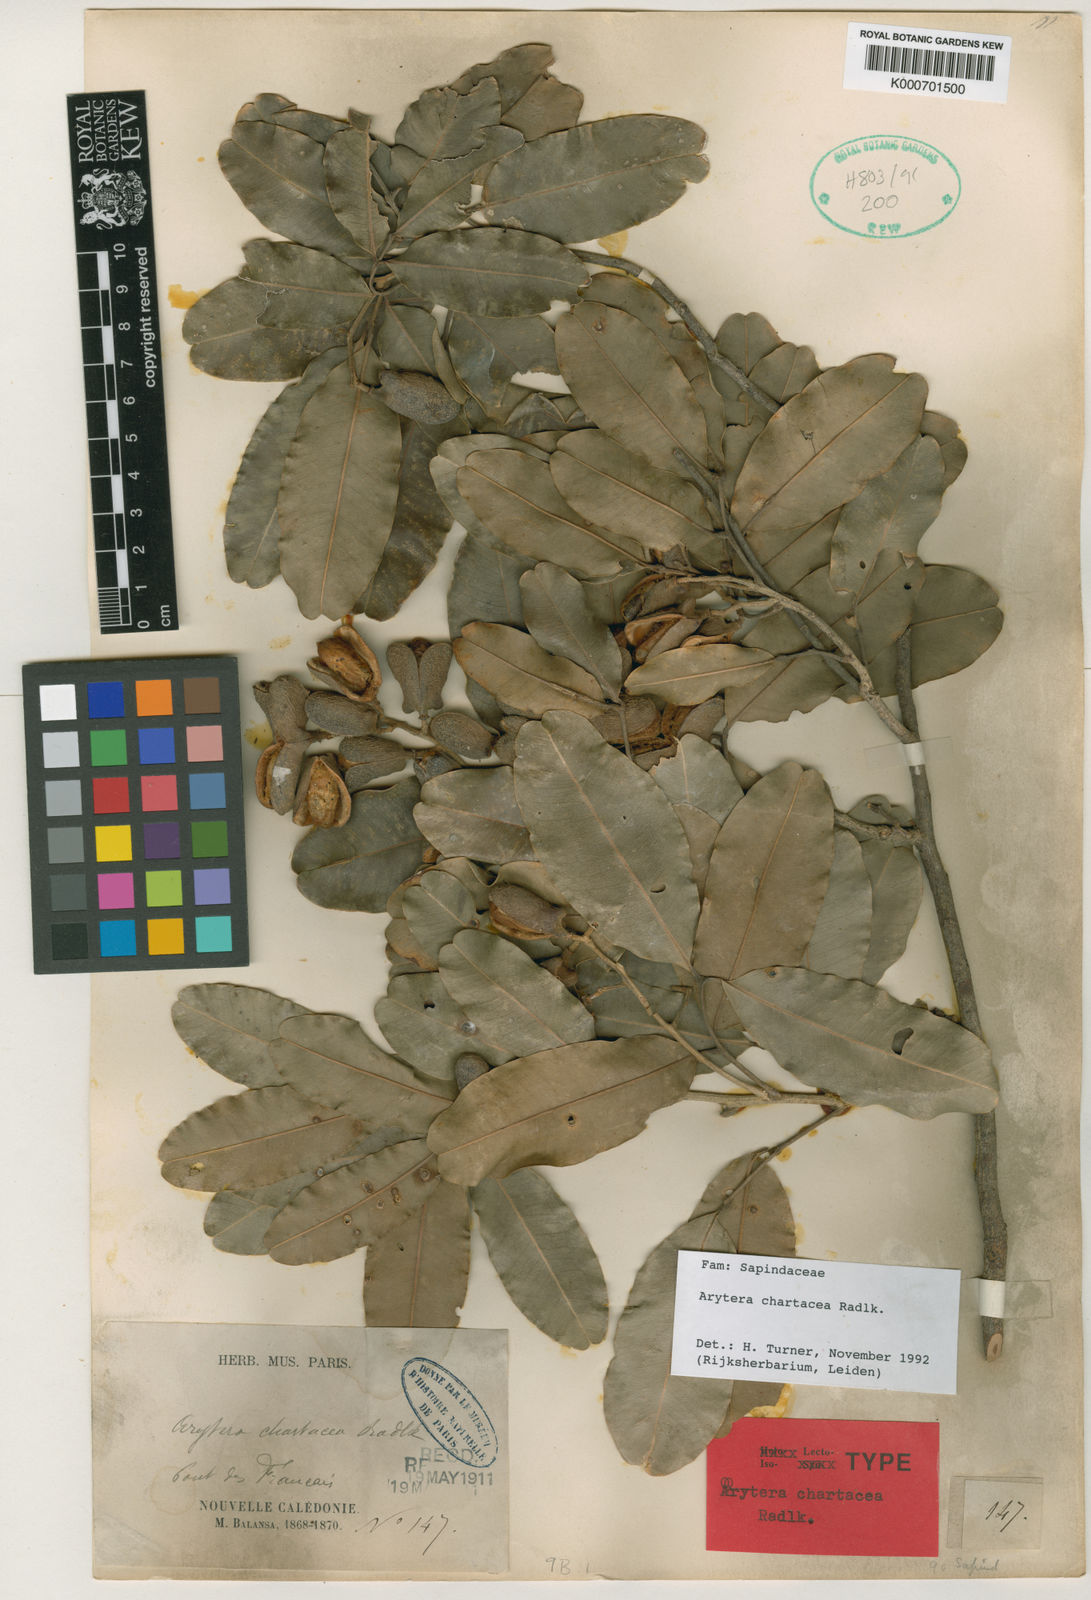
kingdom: Plantae
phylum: Tracheophyta
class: Magnoliopsida
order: Sapindales
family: Sapindaceae
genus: Neoarytera
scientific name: Neoarytera chartacea
